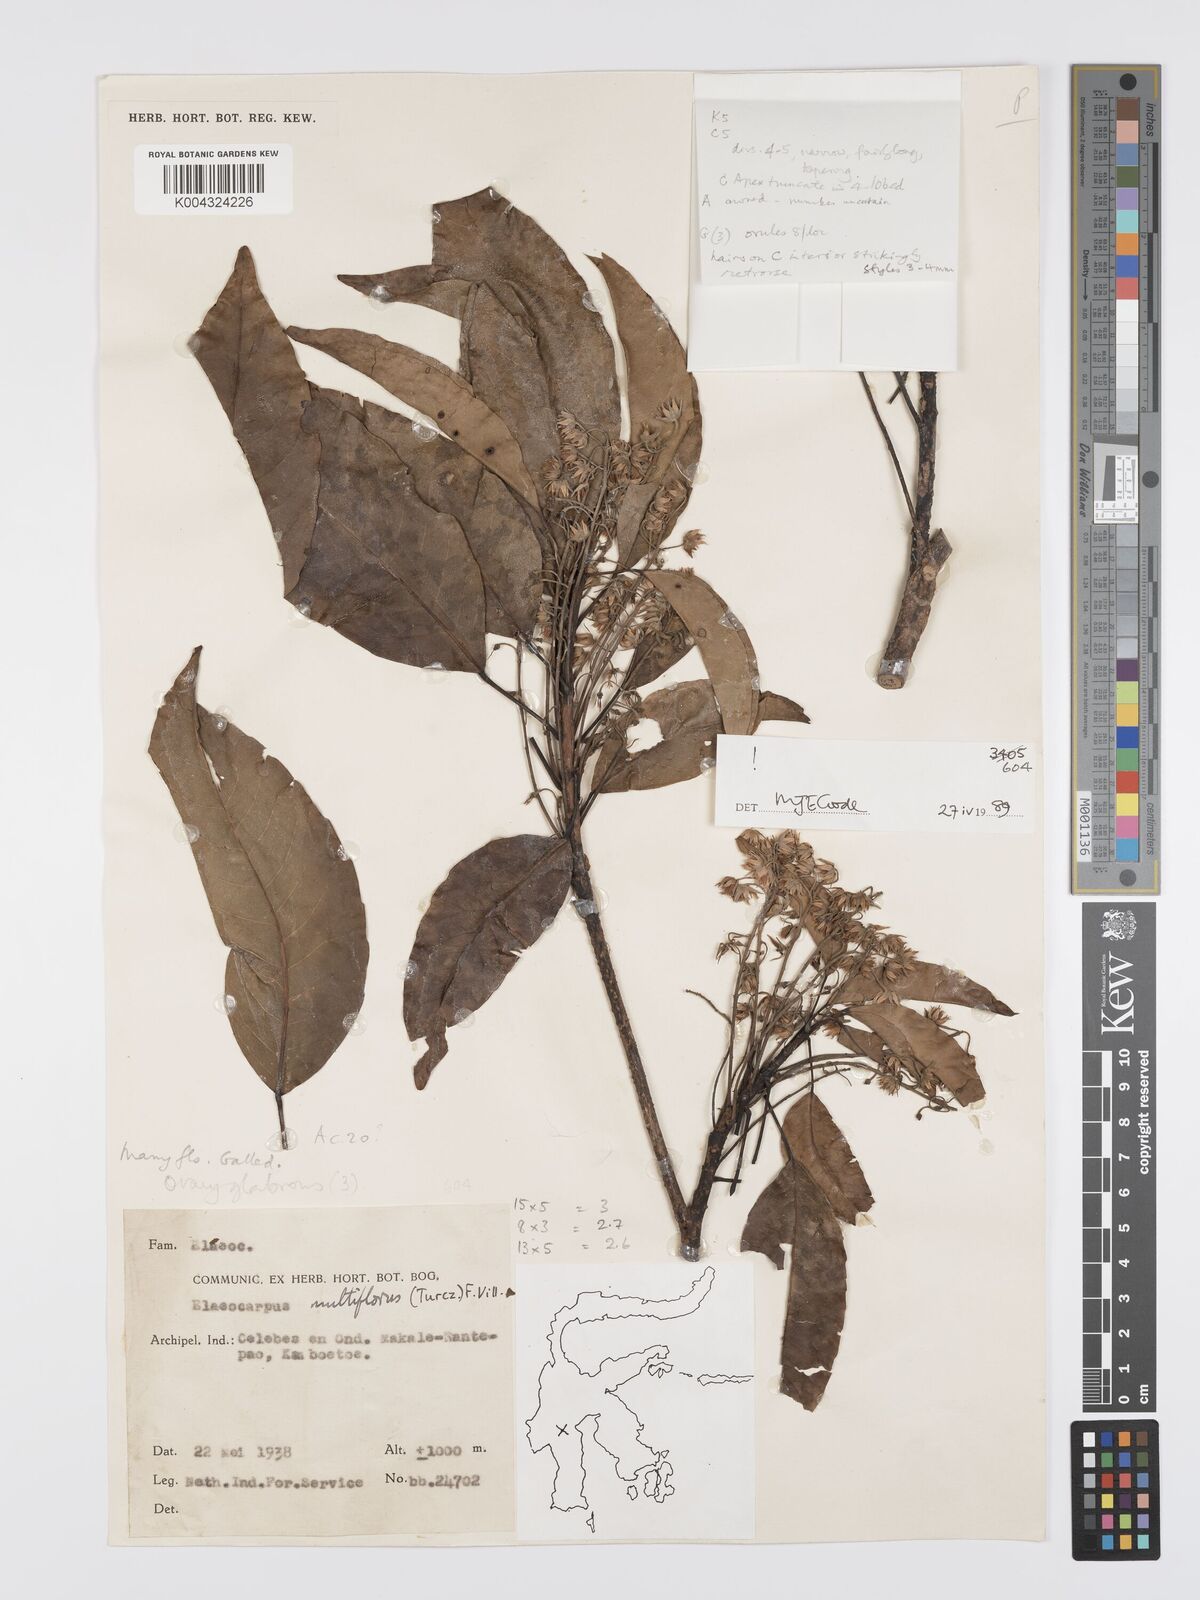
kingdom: Plantae
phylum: Tracheophyta
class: Magnoliopsida
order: Oxalidales
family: Elaeocarpaceae
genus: Elaeocarpus
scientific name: Elaeocarpus multiflorus
